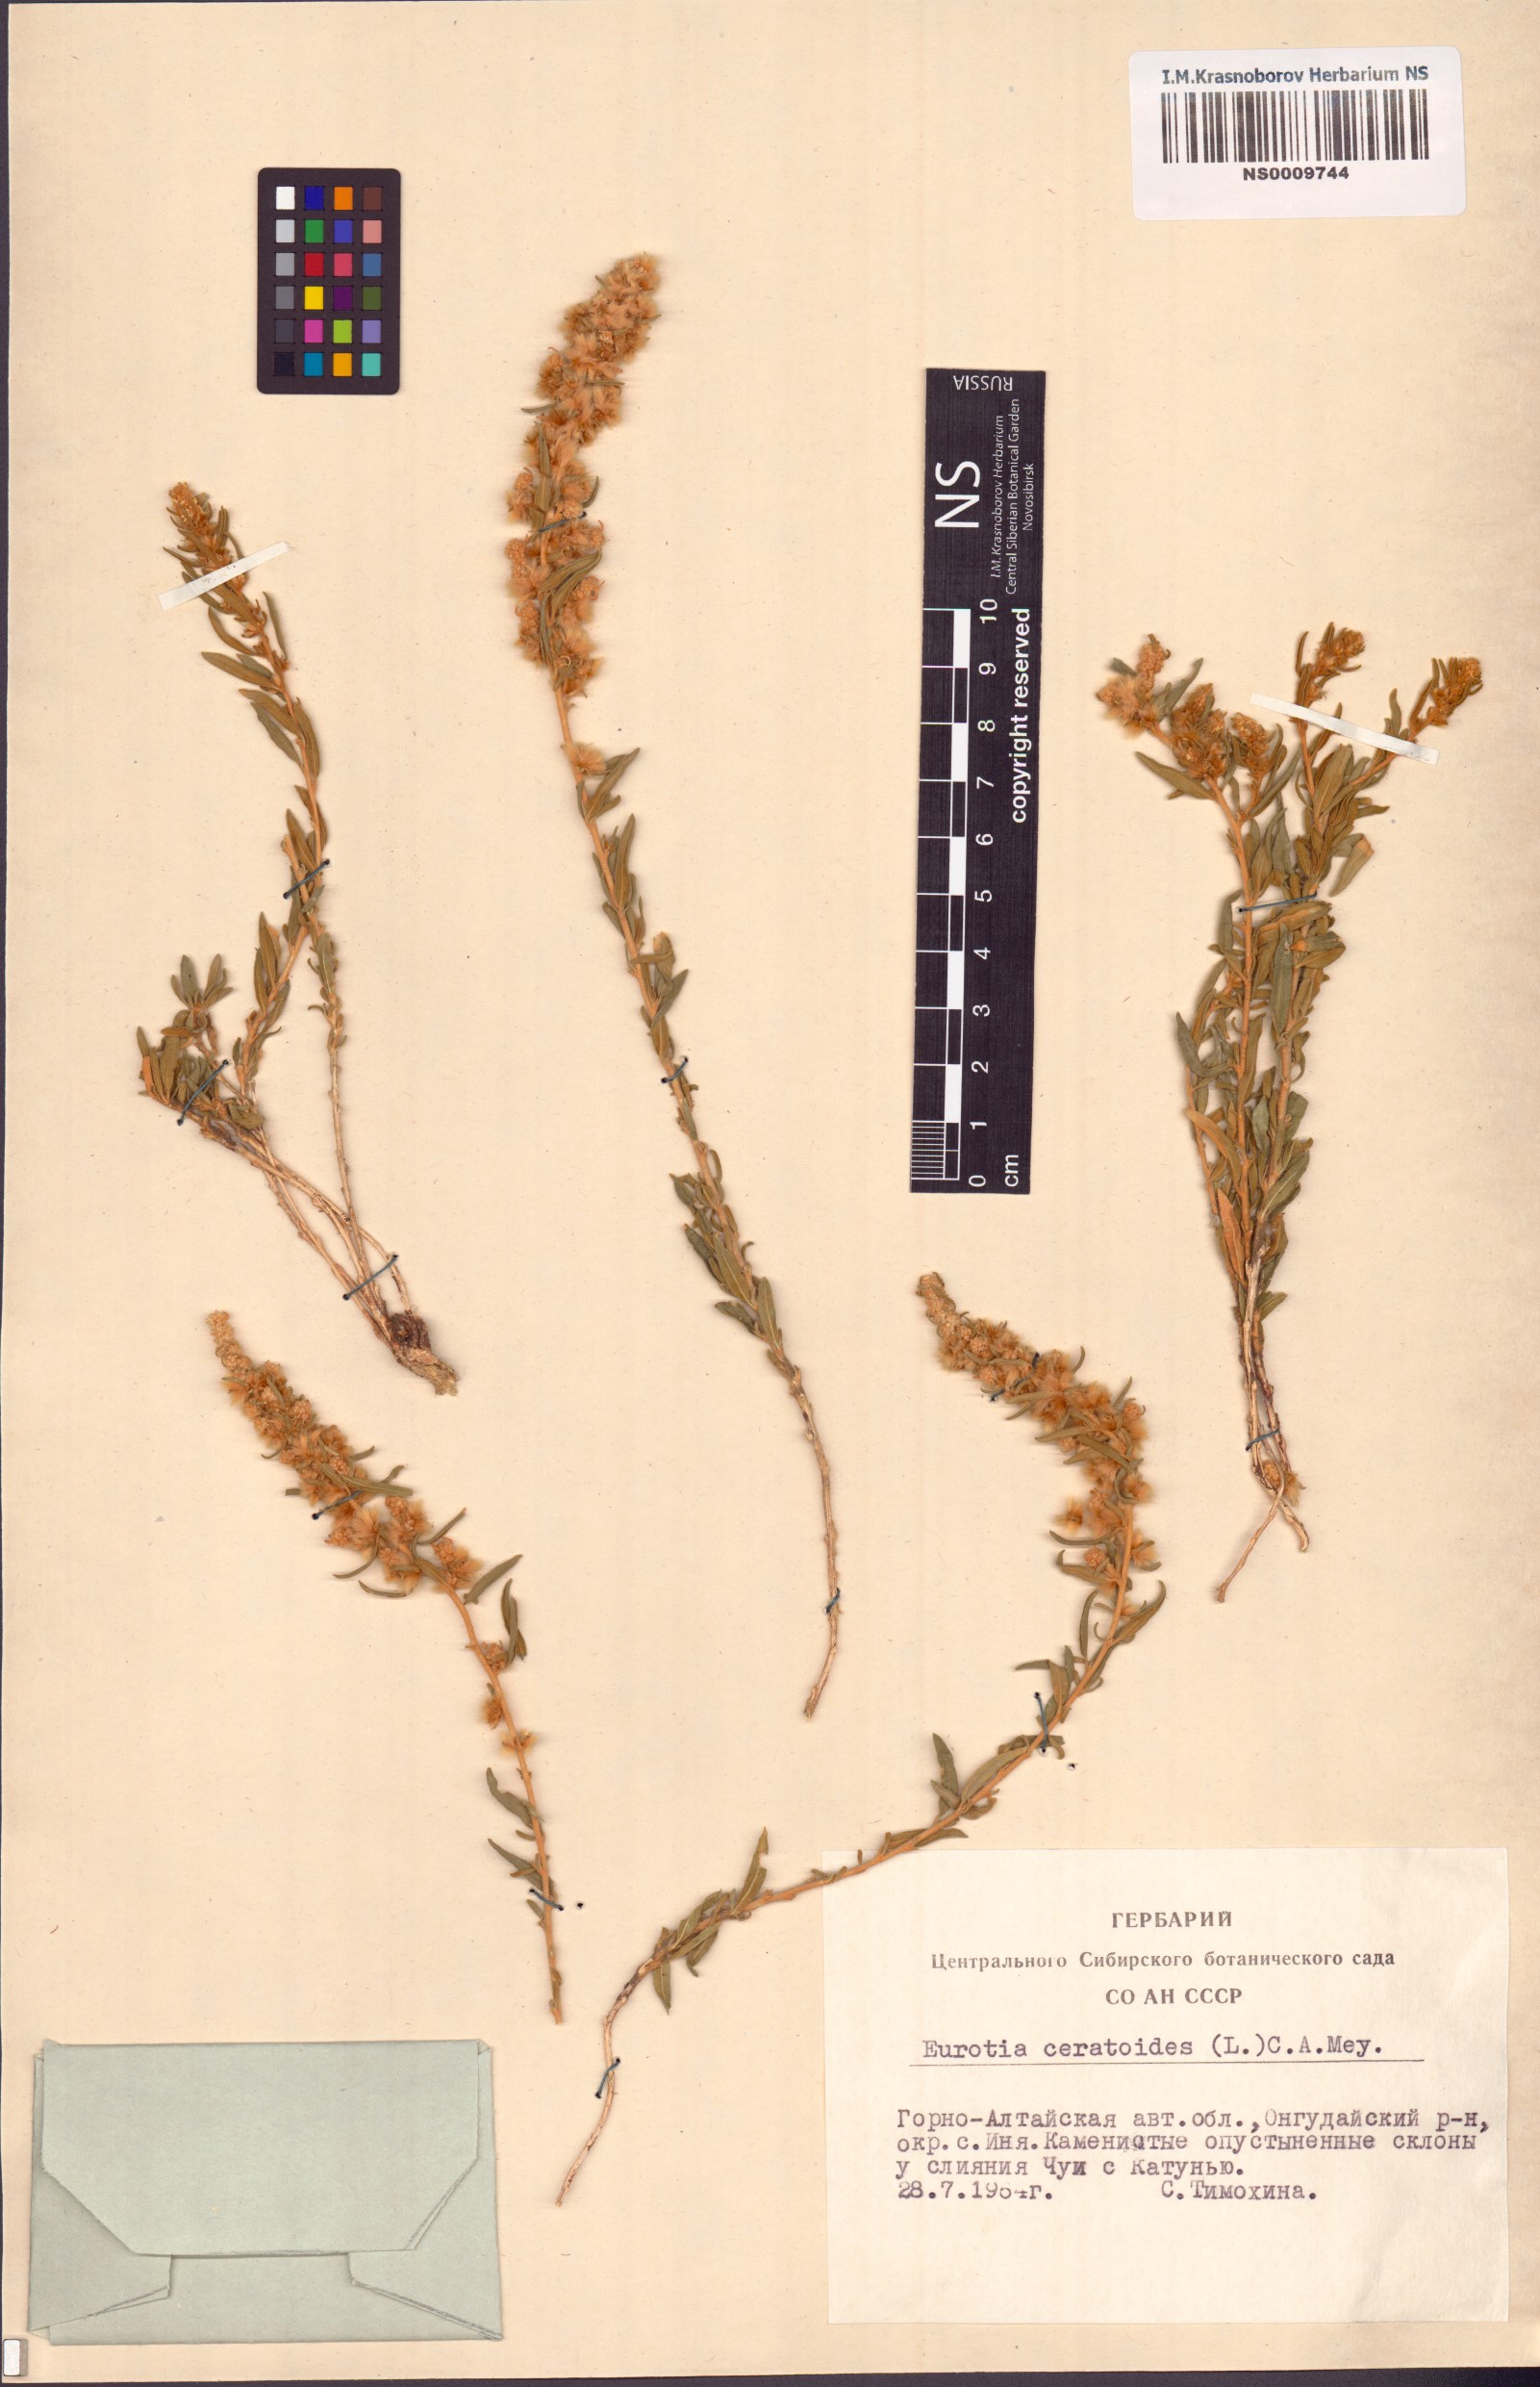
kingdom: Plantae
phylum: Tracheophyta
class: Magnoliopsida
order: Caryophyllales
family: Amaranthaceae
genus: Krascheninnikovia
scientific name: Krascheninnikovia ceratoides
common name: Pamirian winterfat
